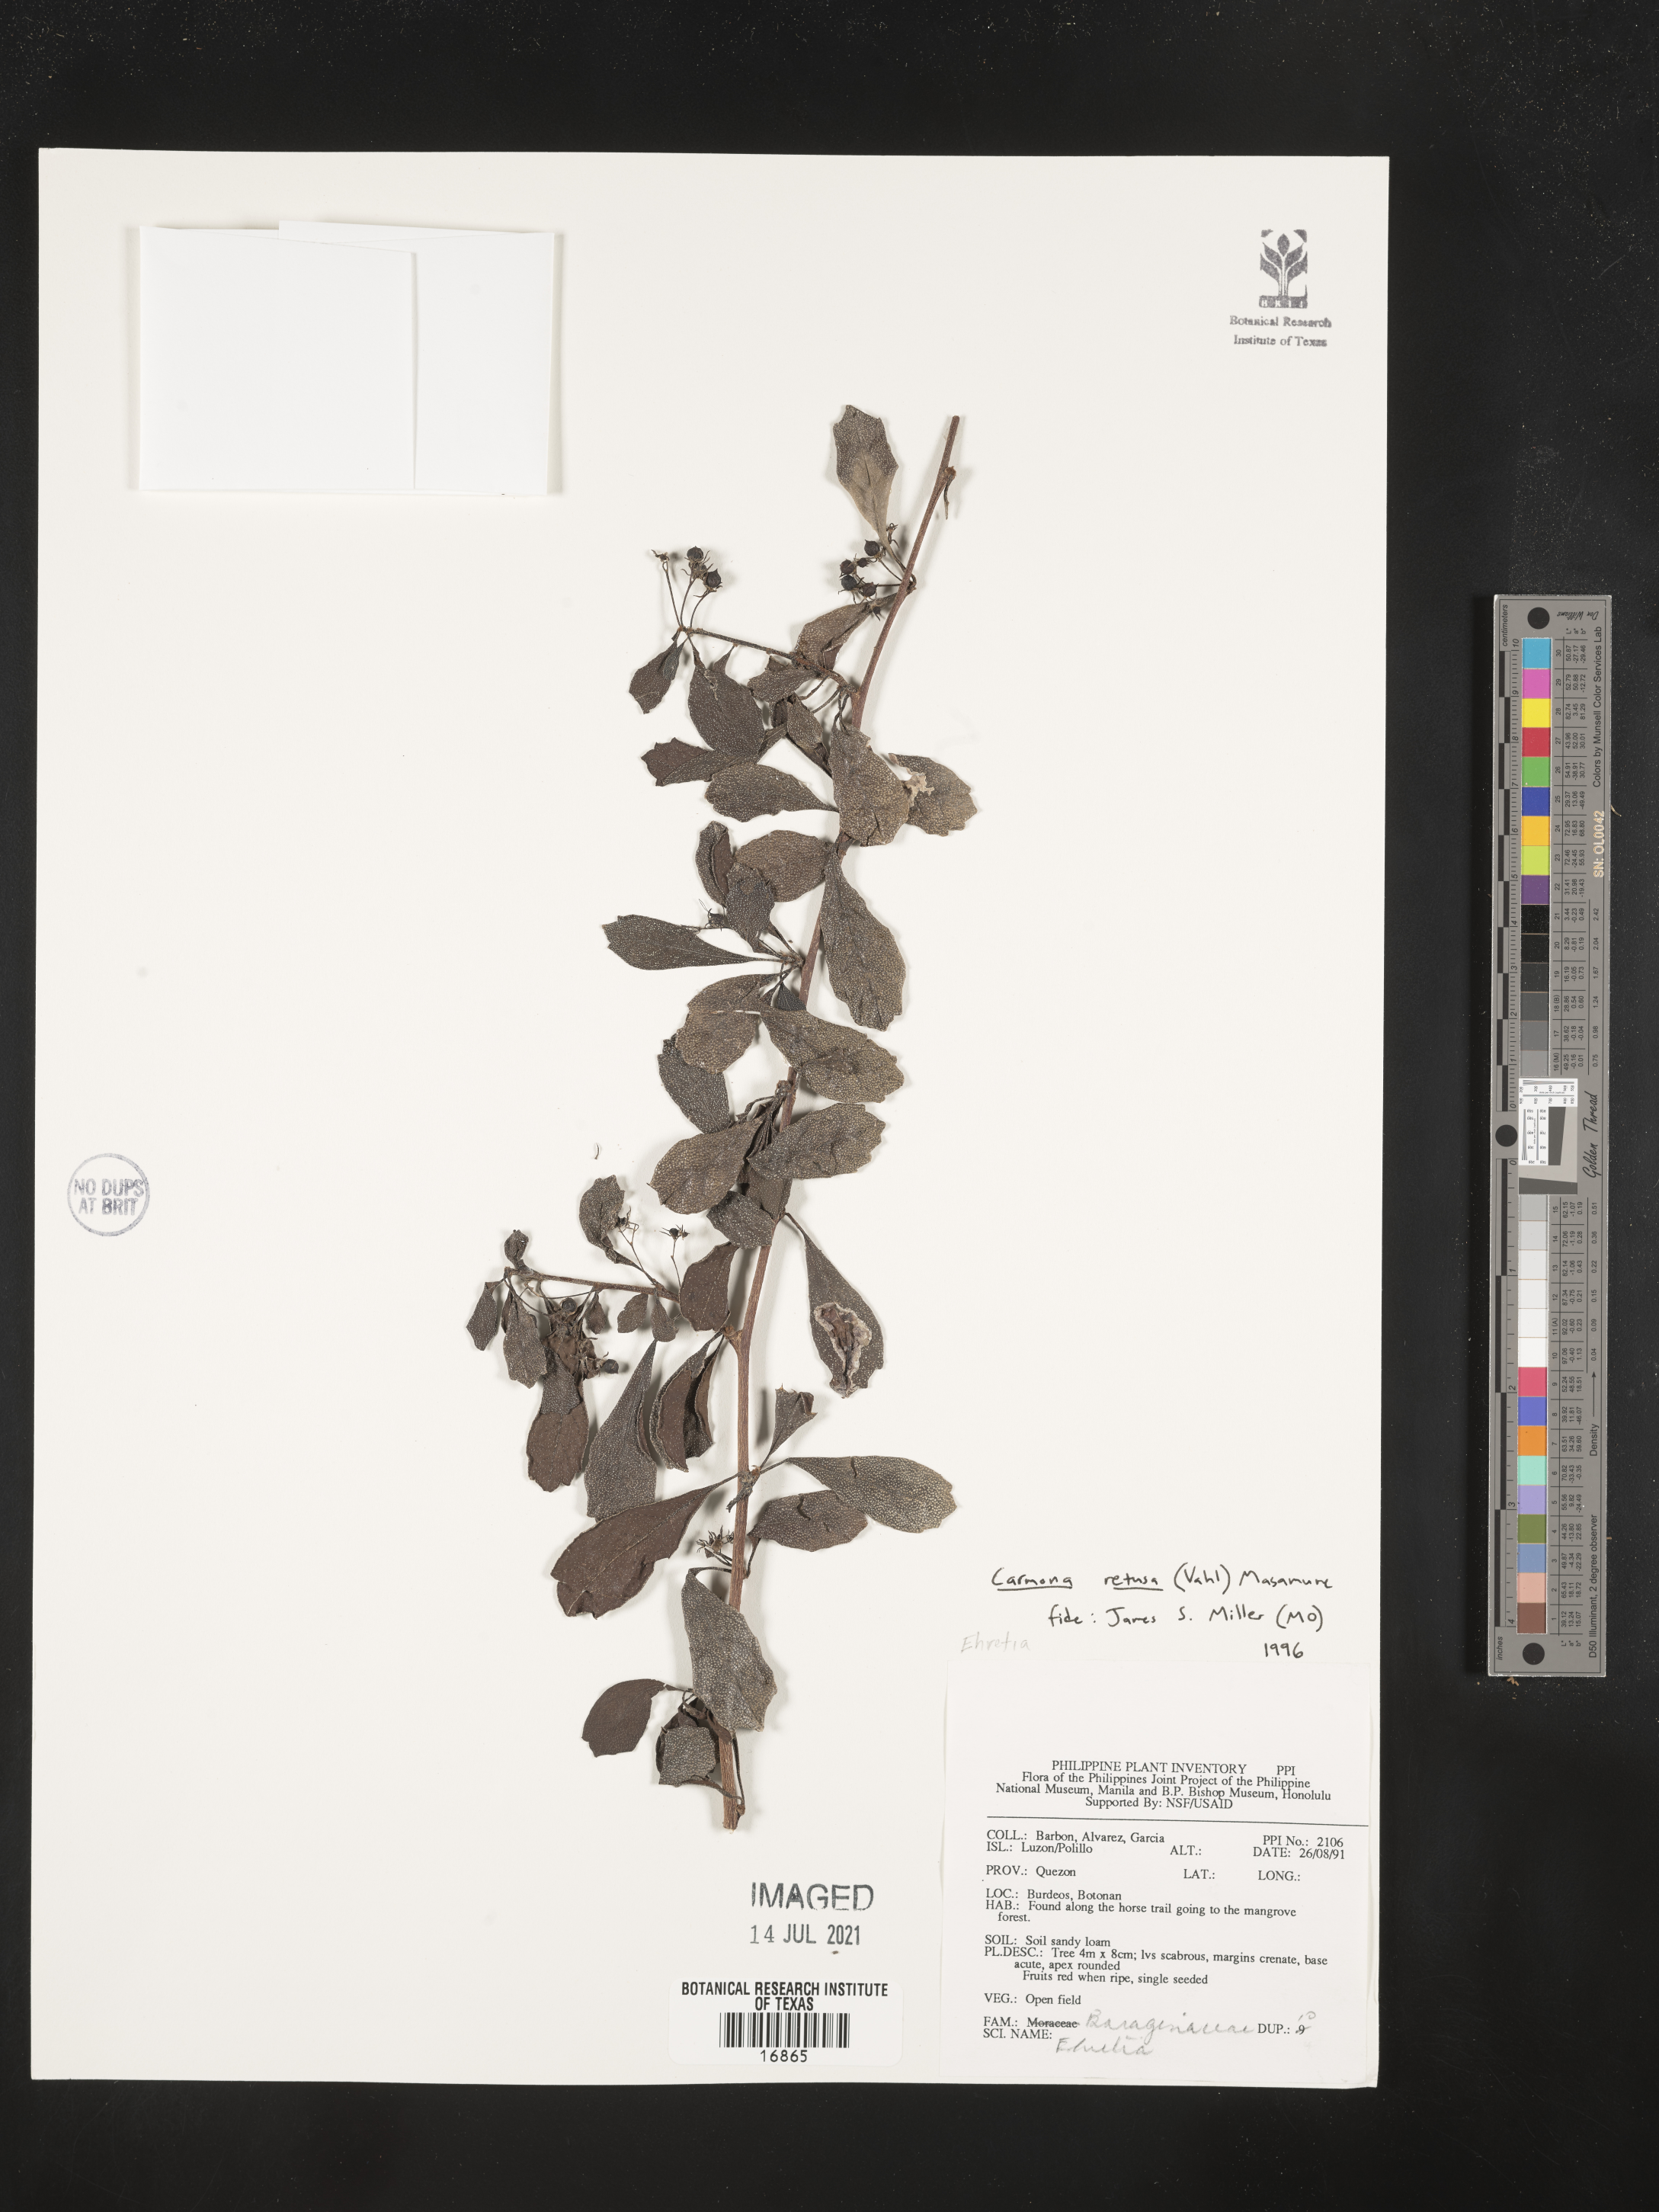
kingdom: Plantae
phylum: Tracheophyta
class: Magnoliopsida
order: Boraginales
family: Ehretiaceae
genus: Ehretia
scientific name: Ehretia
